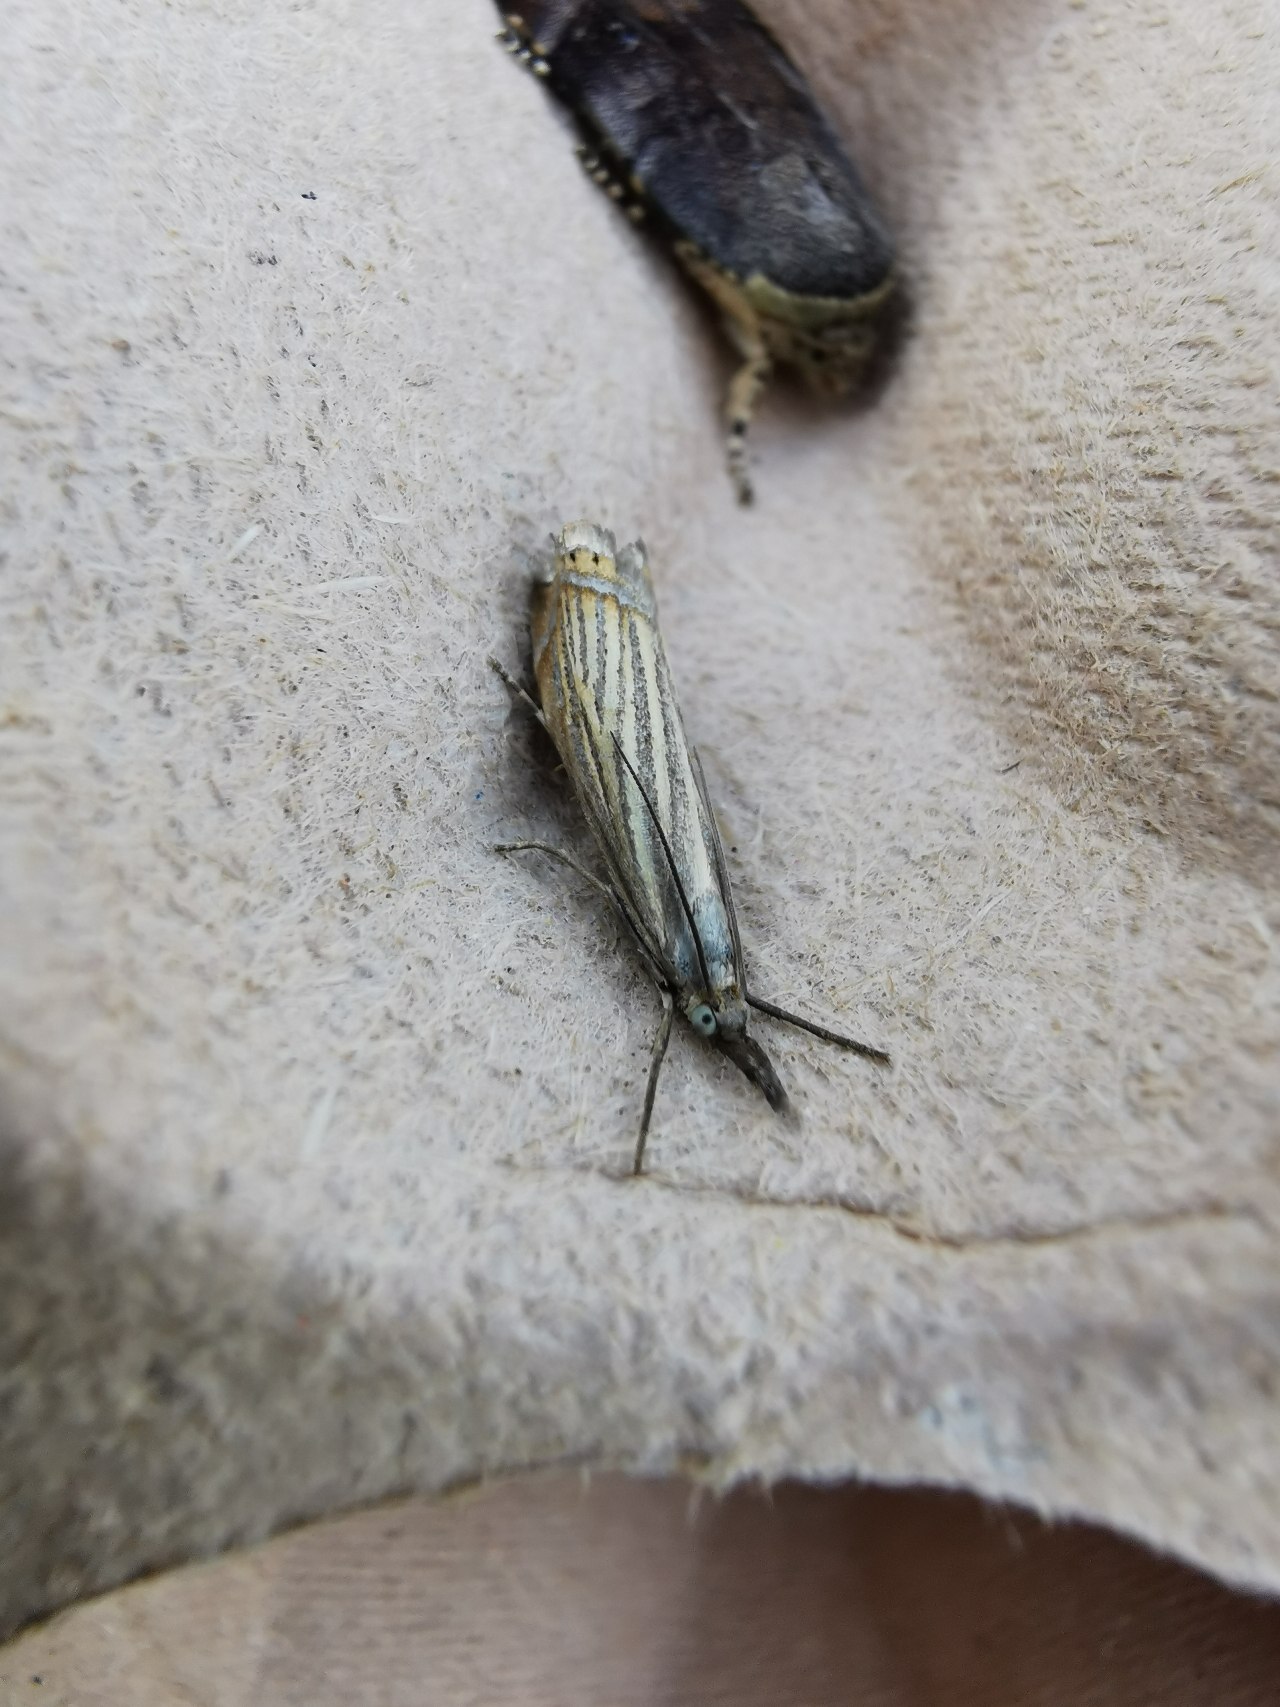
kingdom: Animalia
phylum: Arthropoda
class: Insecta
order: Lepidoptera
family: Crambidae
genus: Chrysoteuchia
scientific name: Chrysoteuchia culmella
